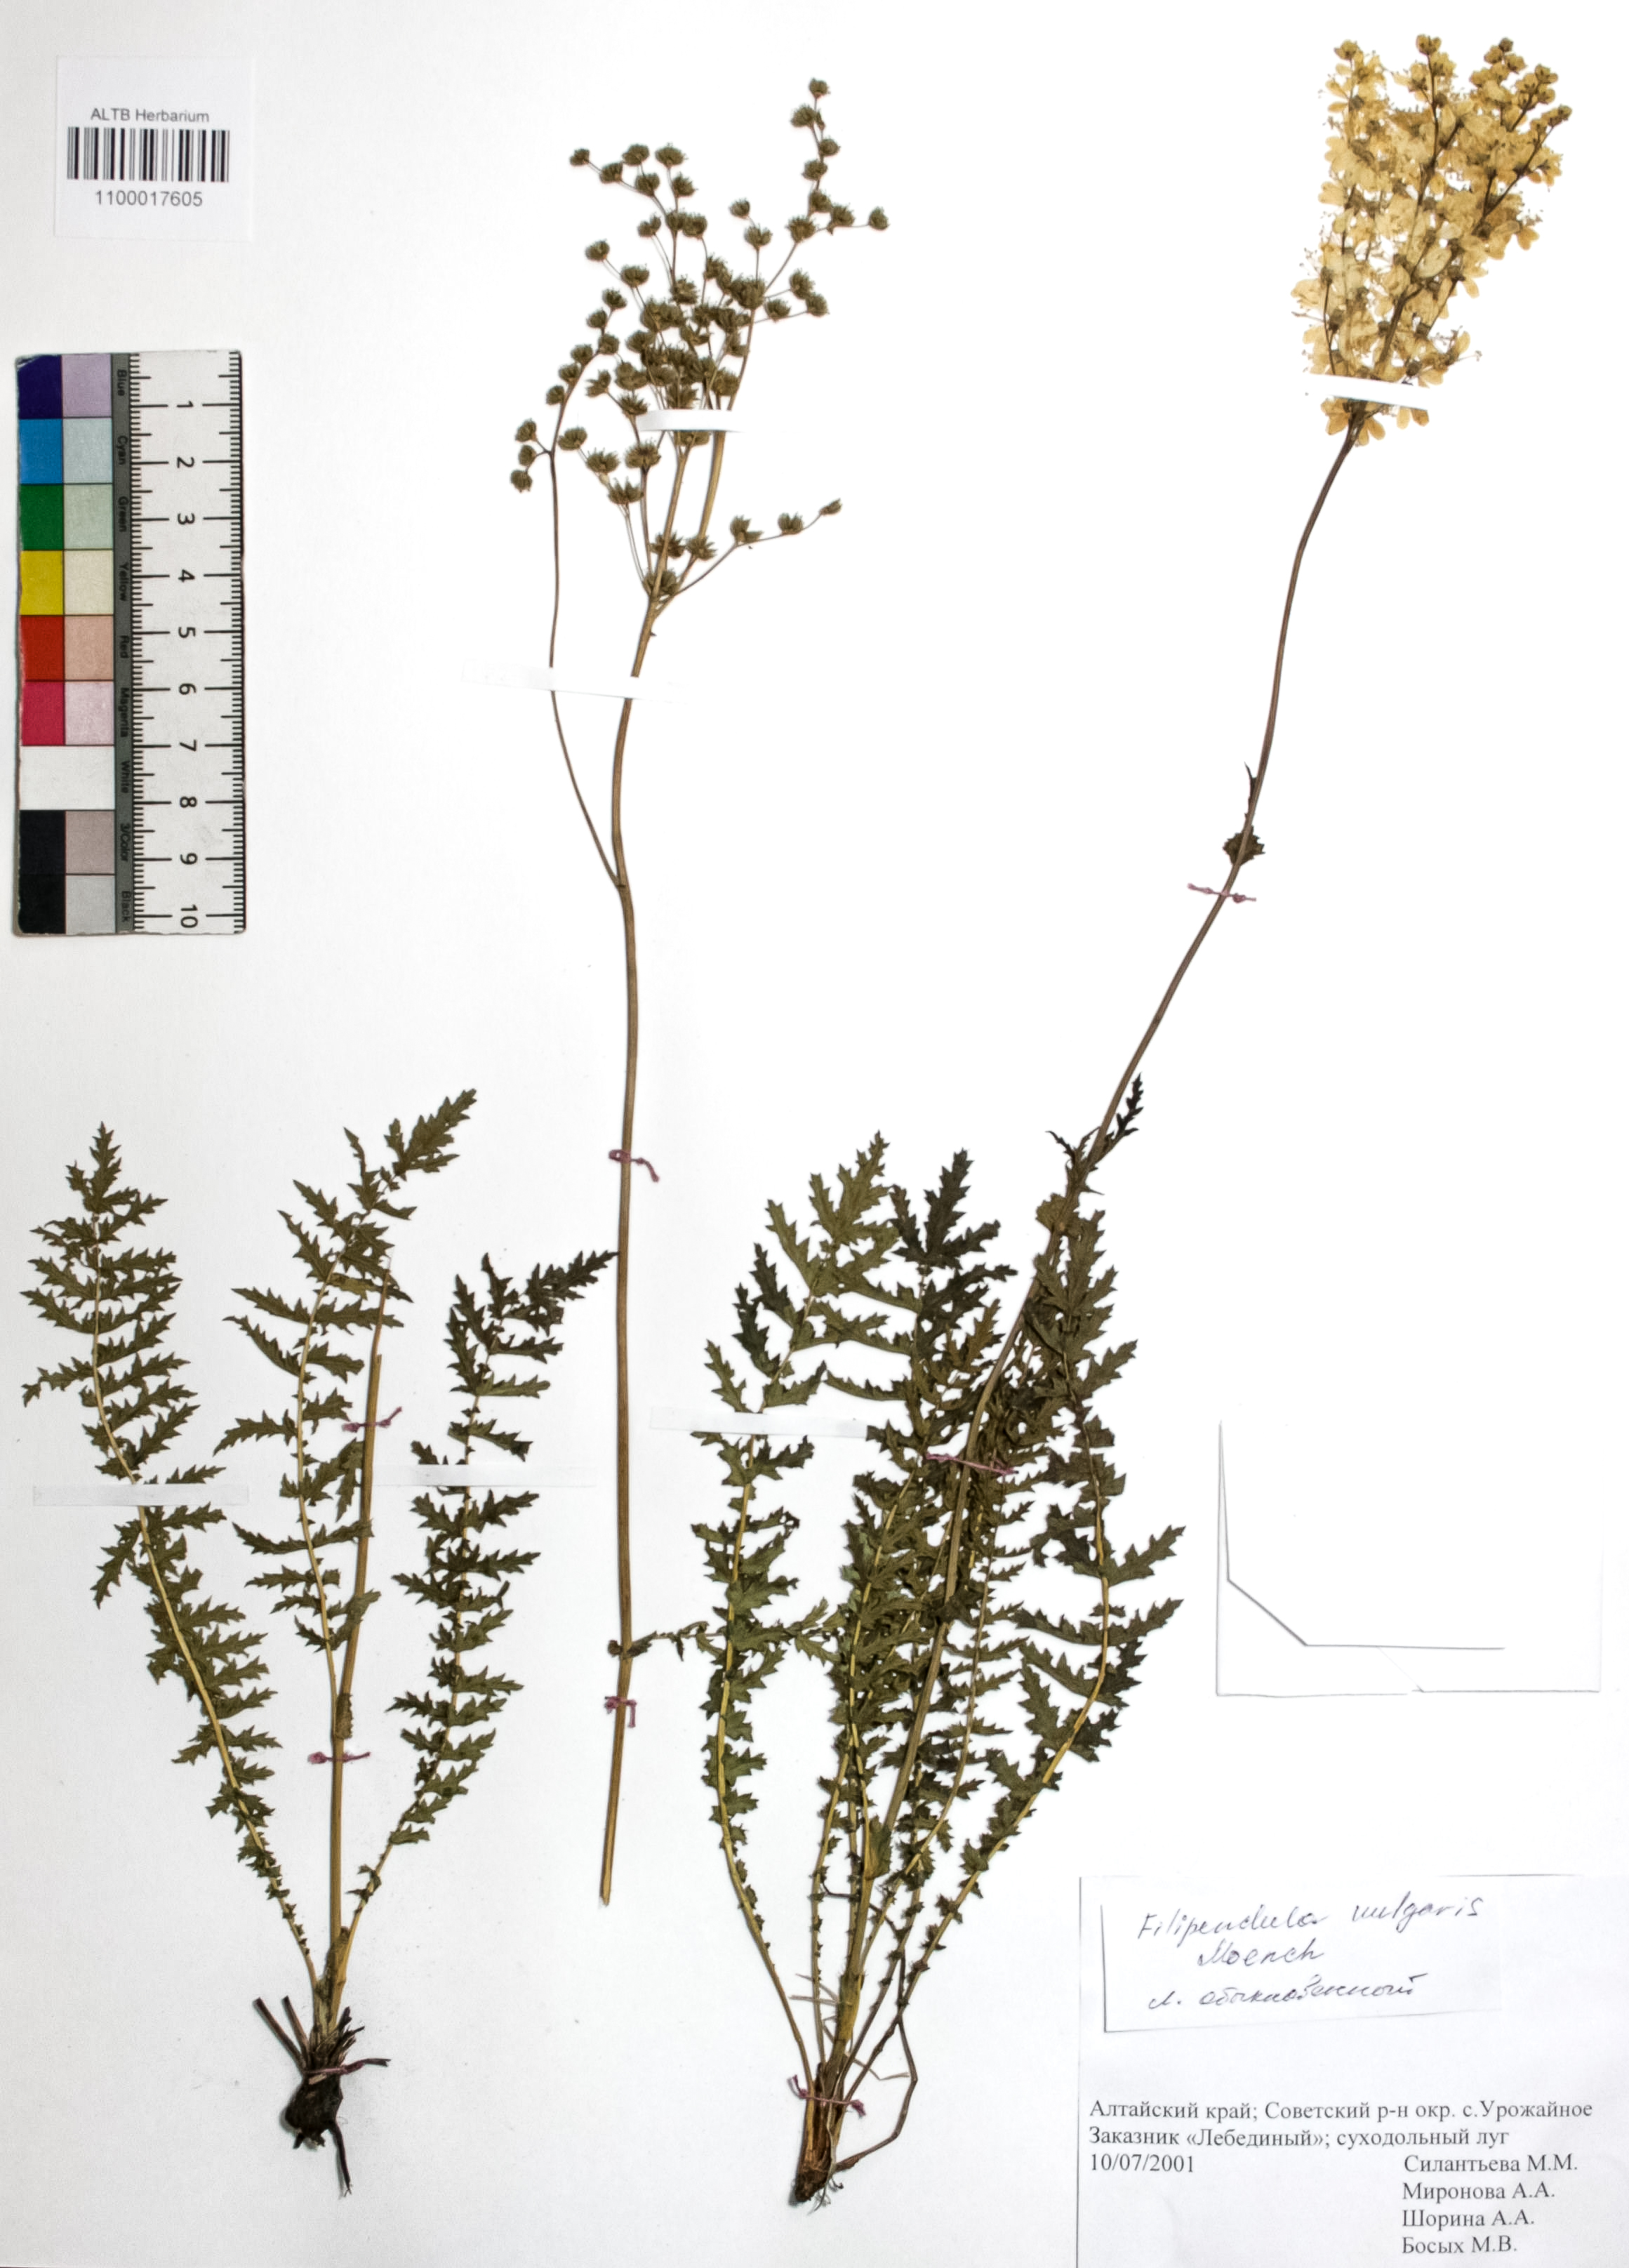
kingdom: Plantae
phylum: Tracheophyta
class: Magnoliopsida
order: Rosales
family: Rosaceae
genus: Filipendula
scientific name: Filipendula vulgaris
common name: Dropwort
